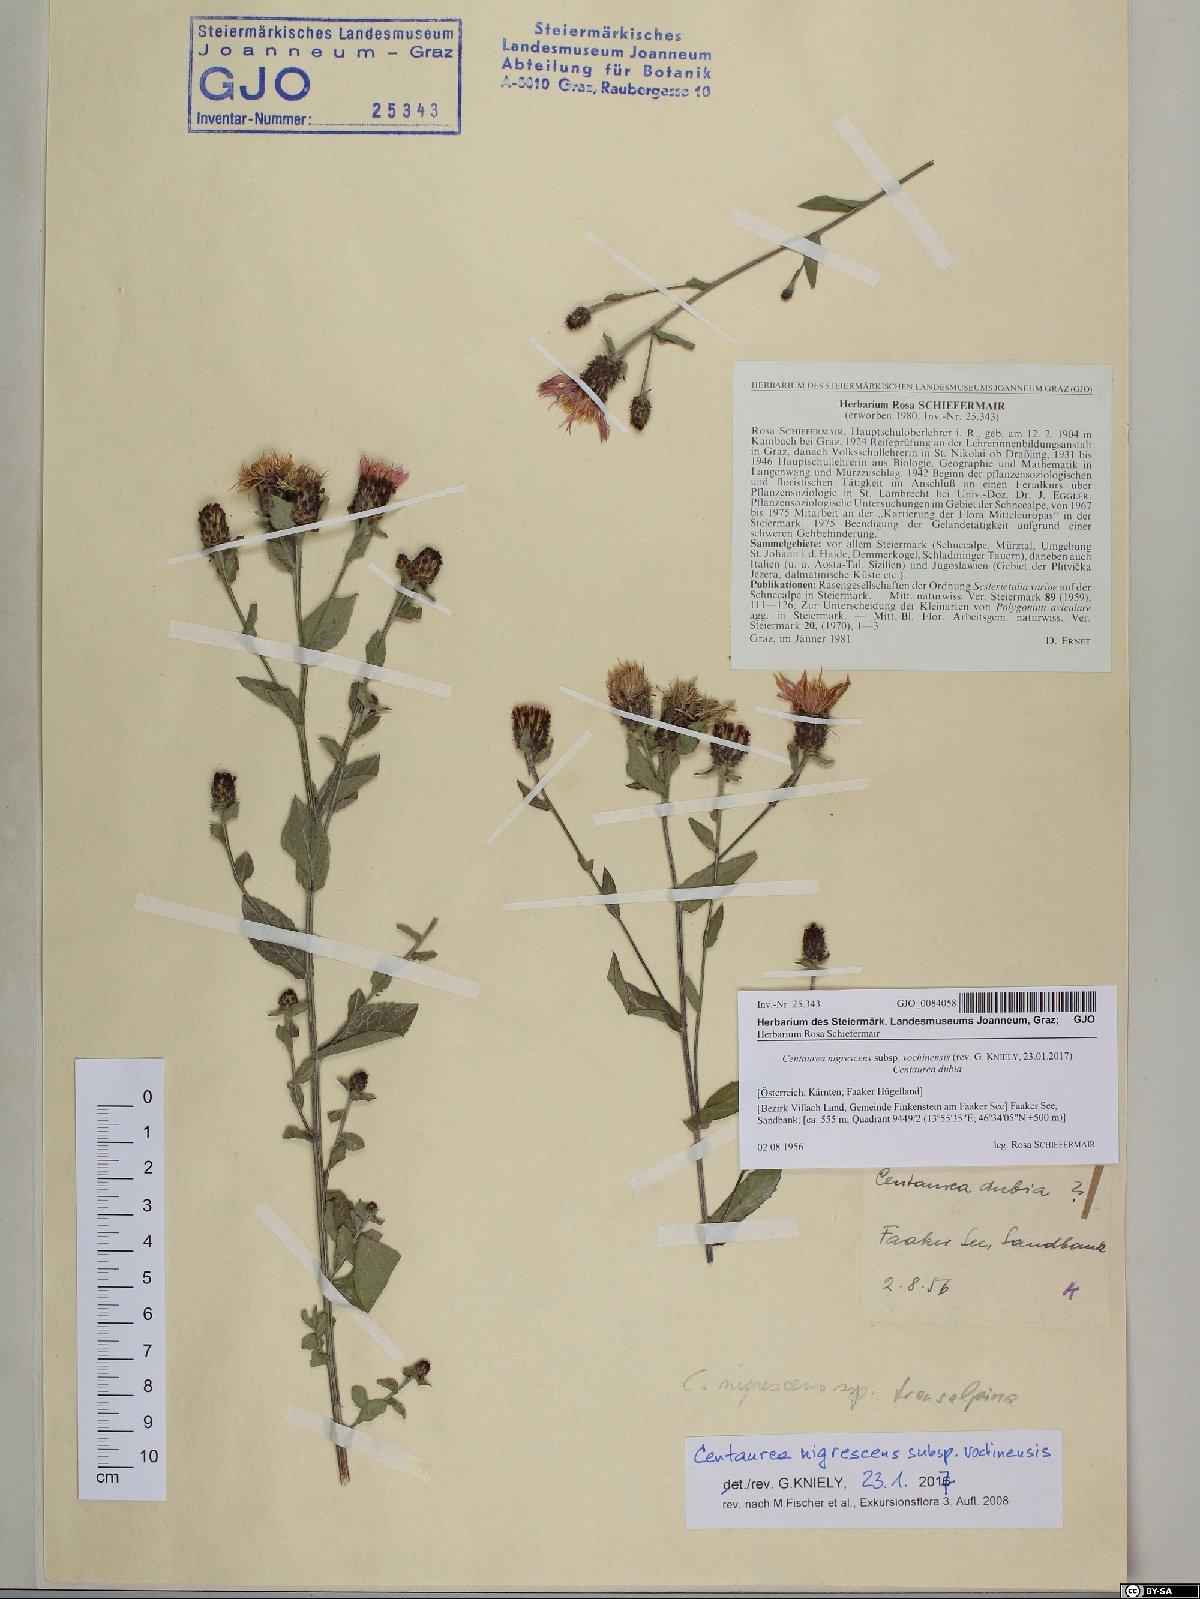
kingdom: Plantae
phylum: Tracheophyta
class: Magnoliopsida
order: Asterales
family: Asteraceae
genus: Centaurea
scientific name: Centaurea carniolica
